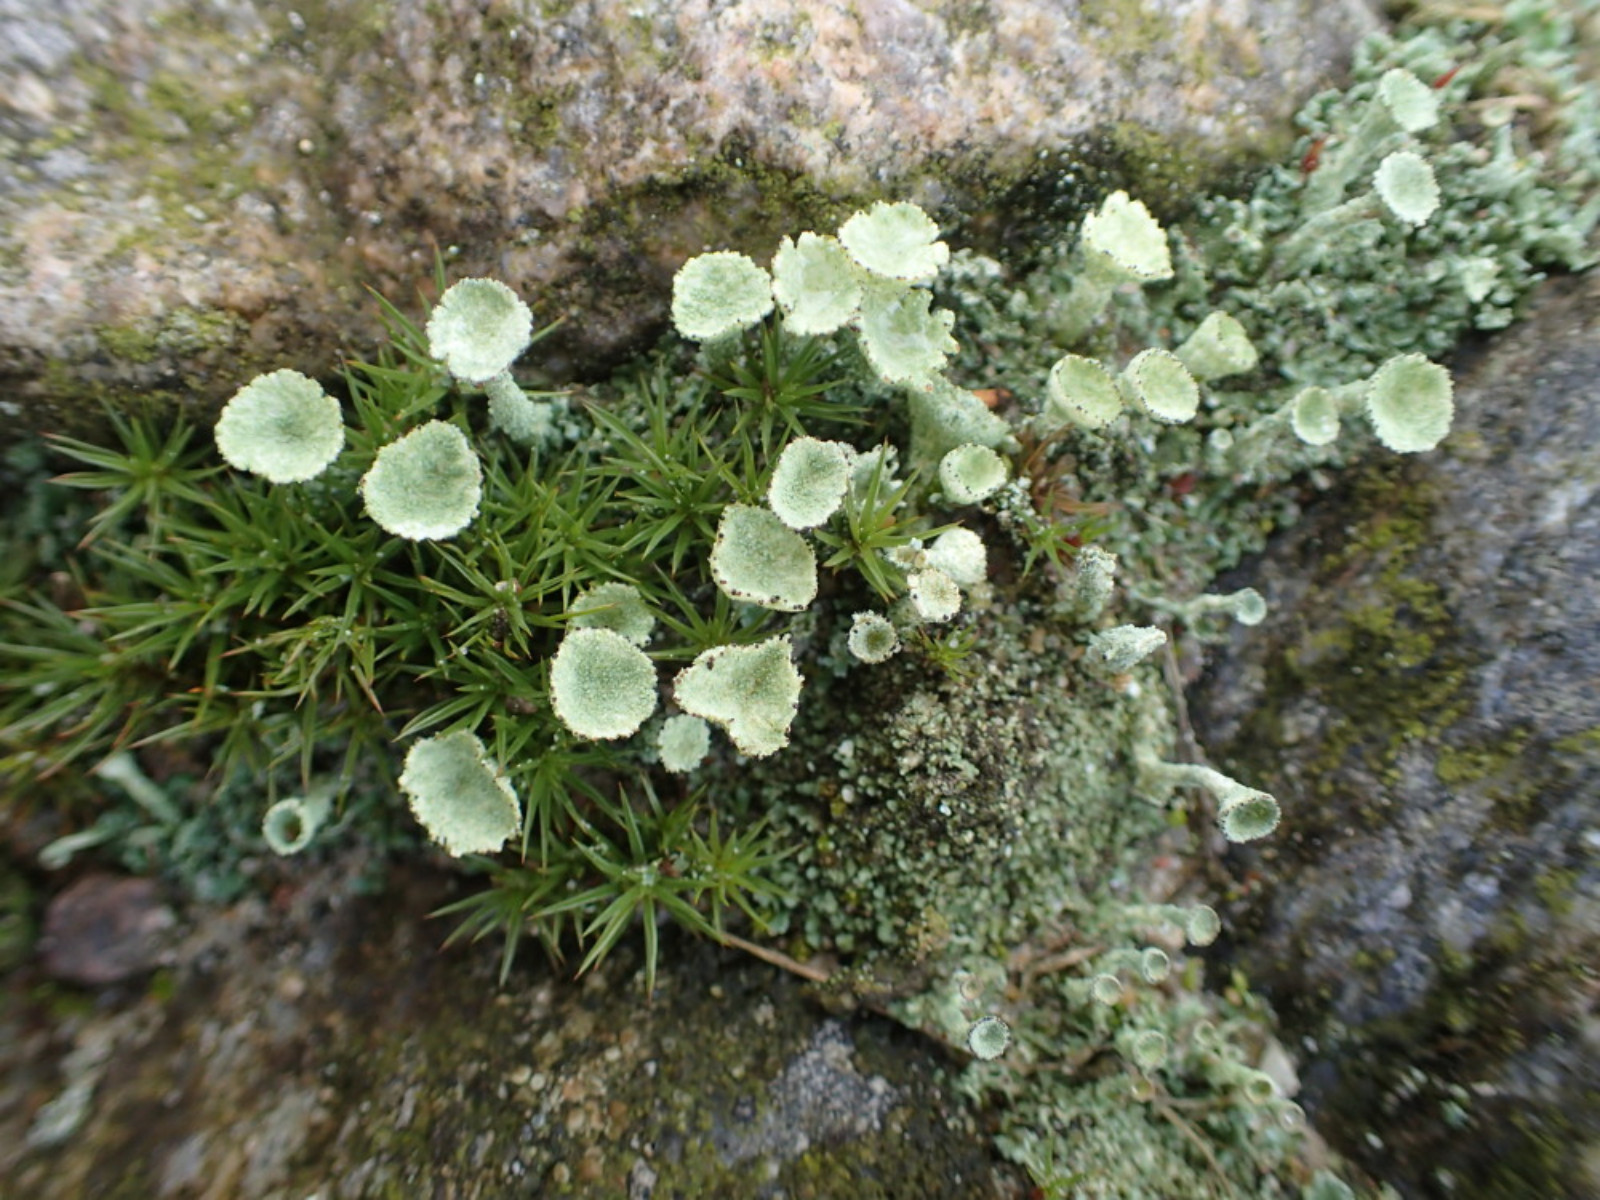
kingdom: Fungi
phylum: Ascomycota
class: Lecanoromycetes
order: Lecanorales
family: Cladoniaceae
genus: Cladonia
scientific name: Cladonia fimbriata
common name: bleggrøn bægerlav
